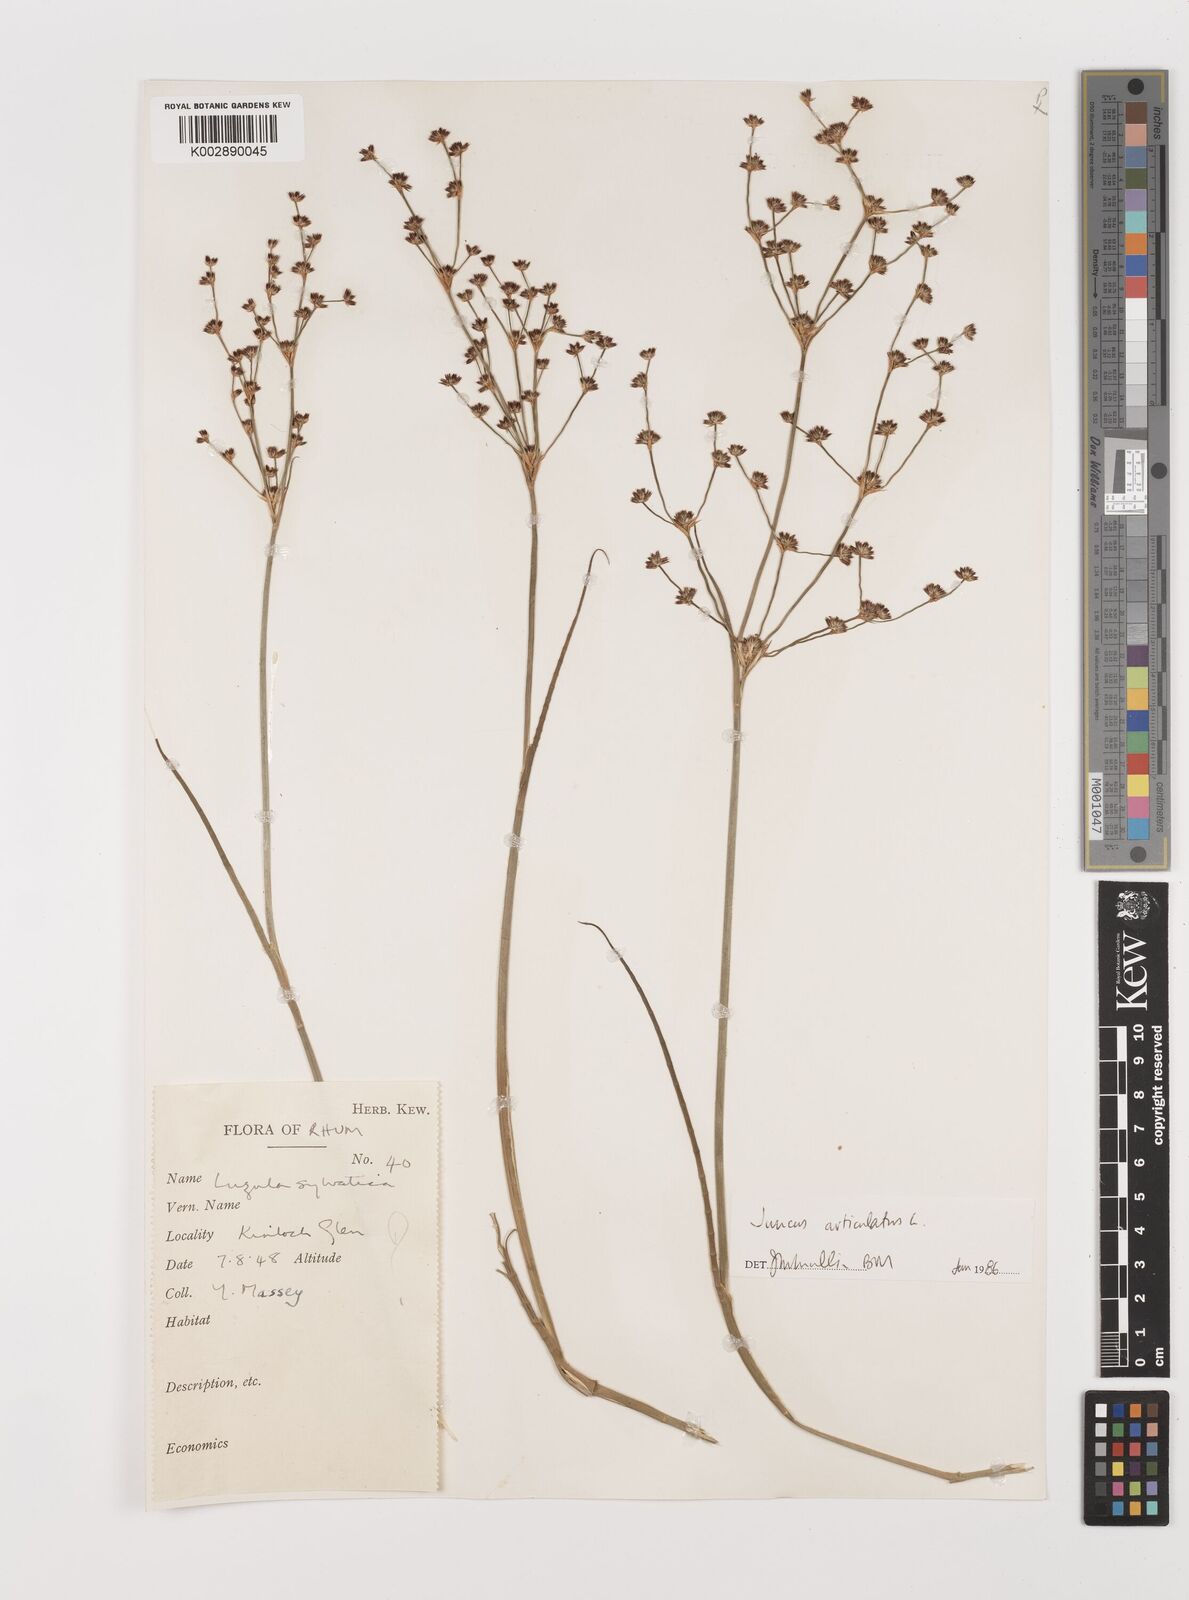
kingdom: Plantae
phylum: Tracheophyta
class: Liliopsida
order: Poales
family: Juncaceae
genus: Juncus
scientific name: Juncus articulatus
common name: Jointed rush
